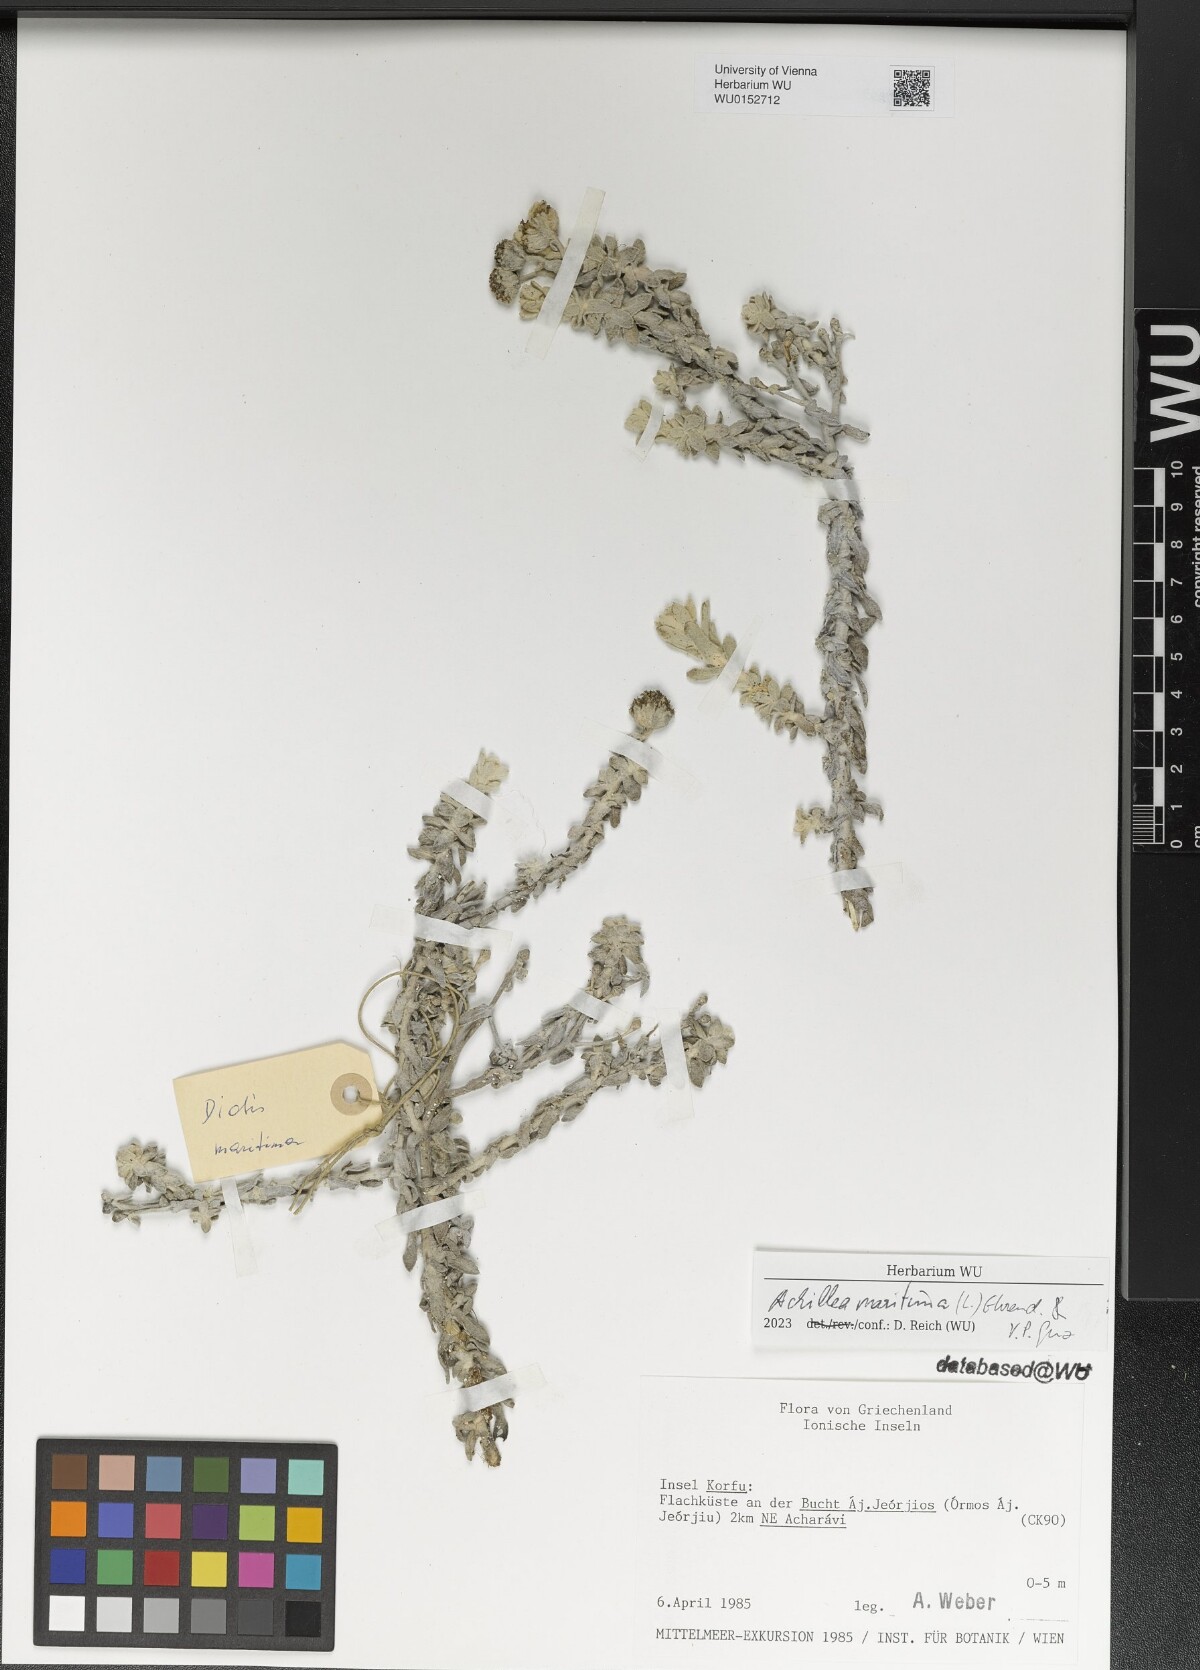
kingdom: Plantae
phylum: Tracheophyta
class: Magnoliopsida
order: Asterales
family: Asteraceae
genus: Achillea
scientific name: Achillea maritima
